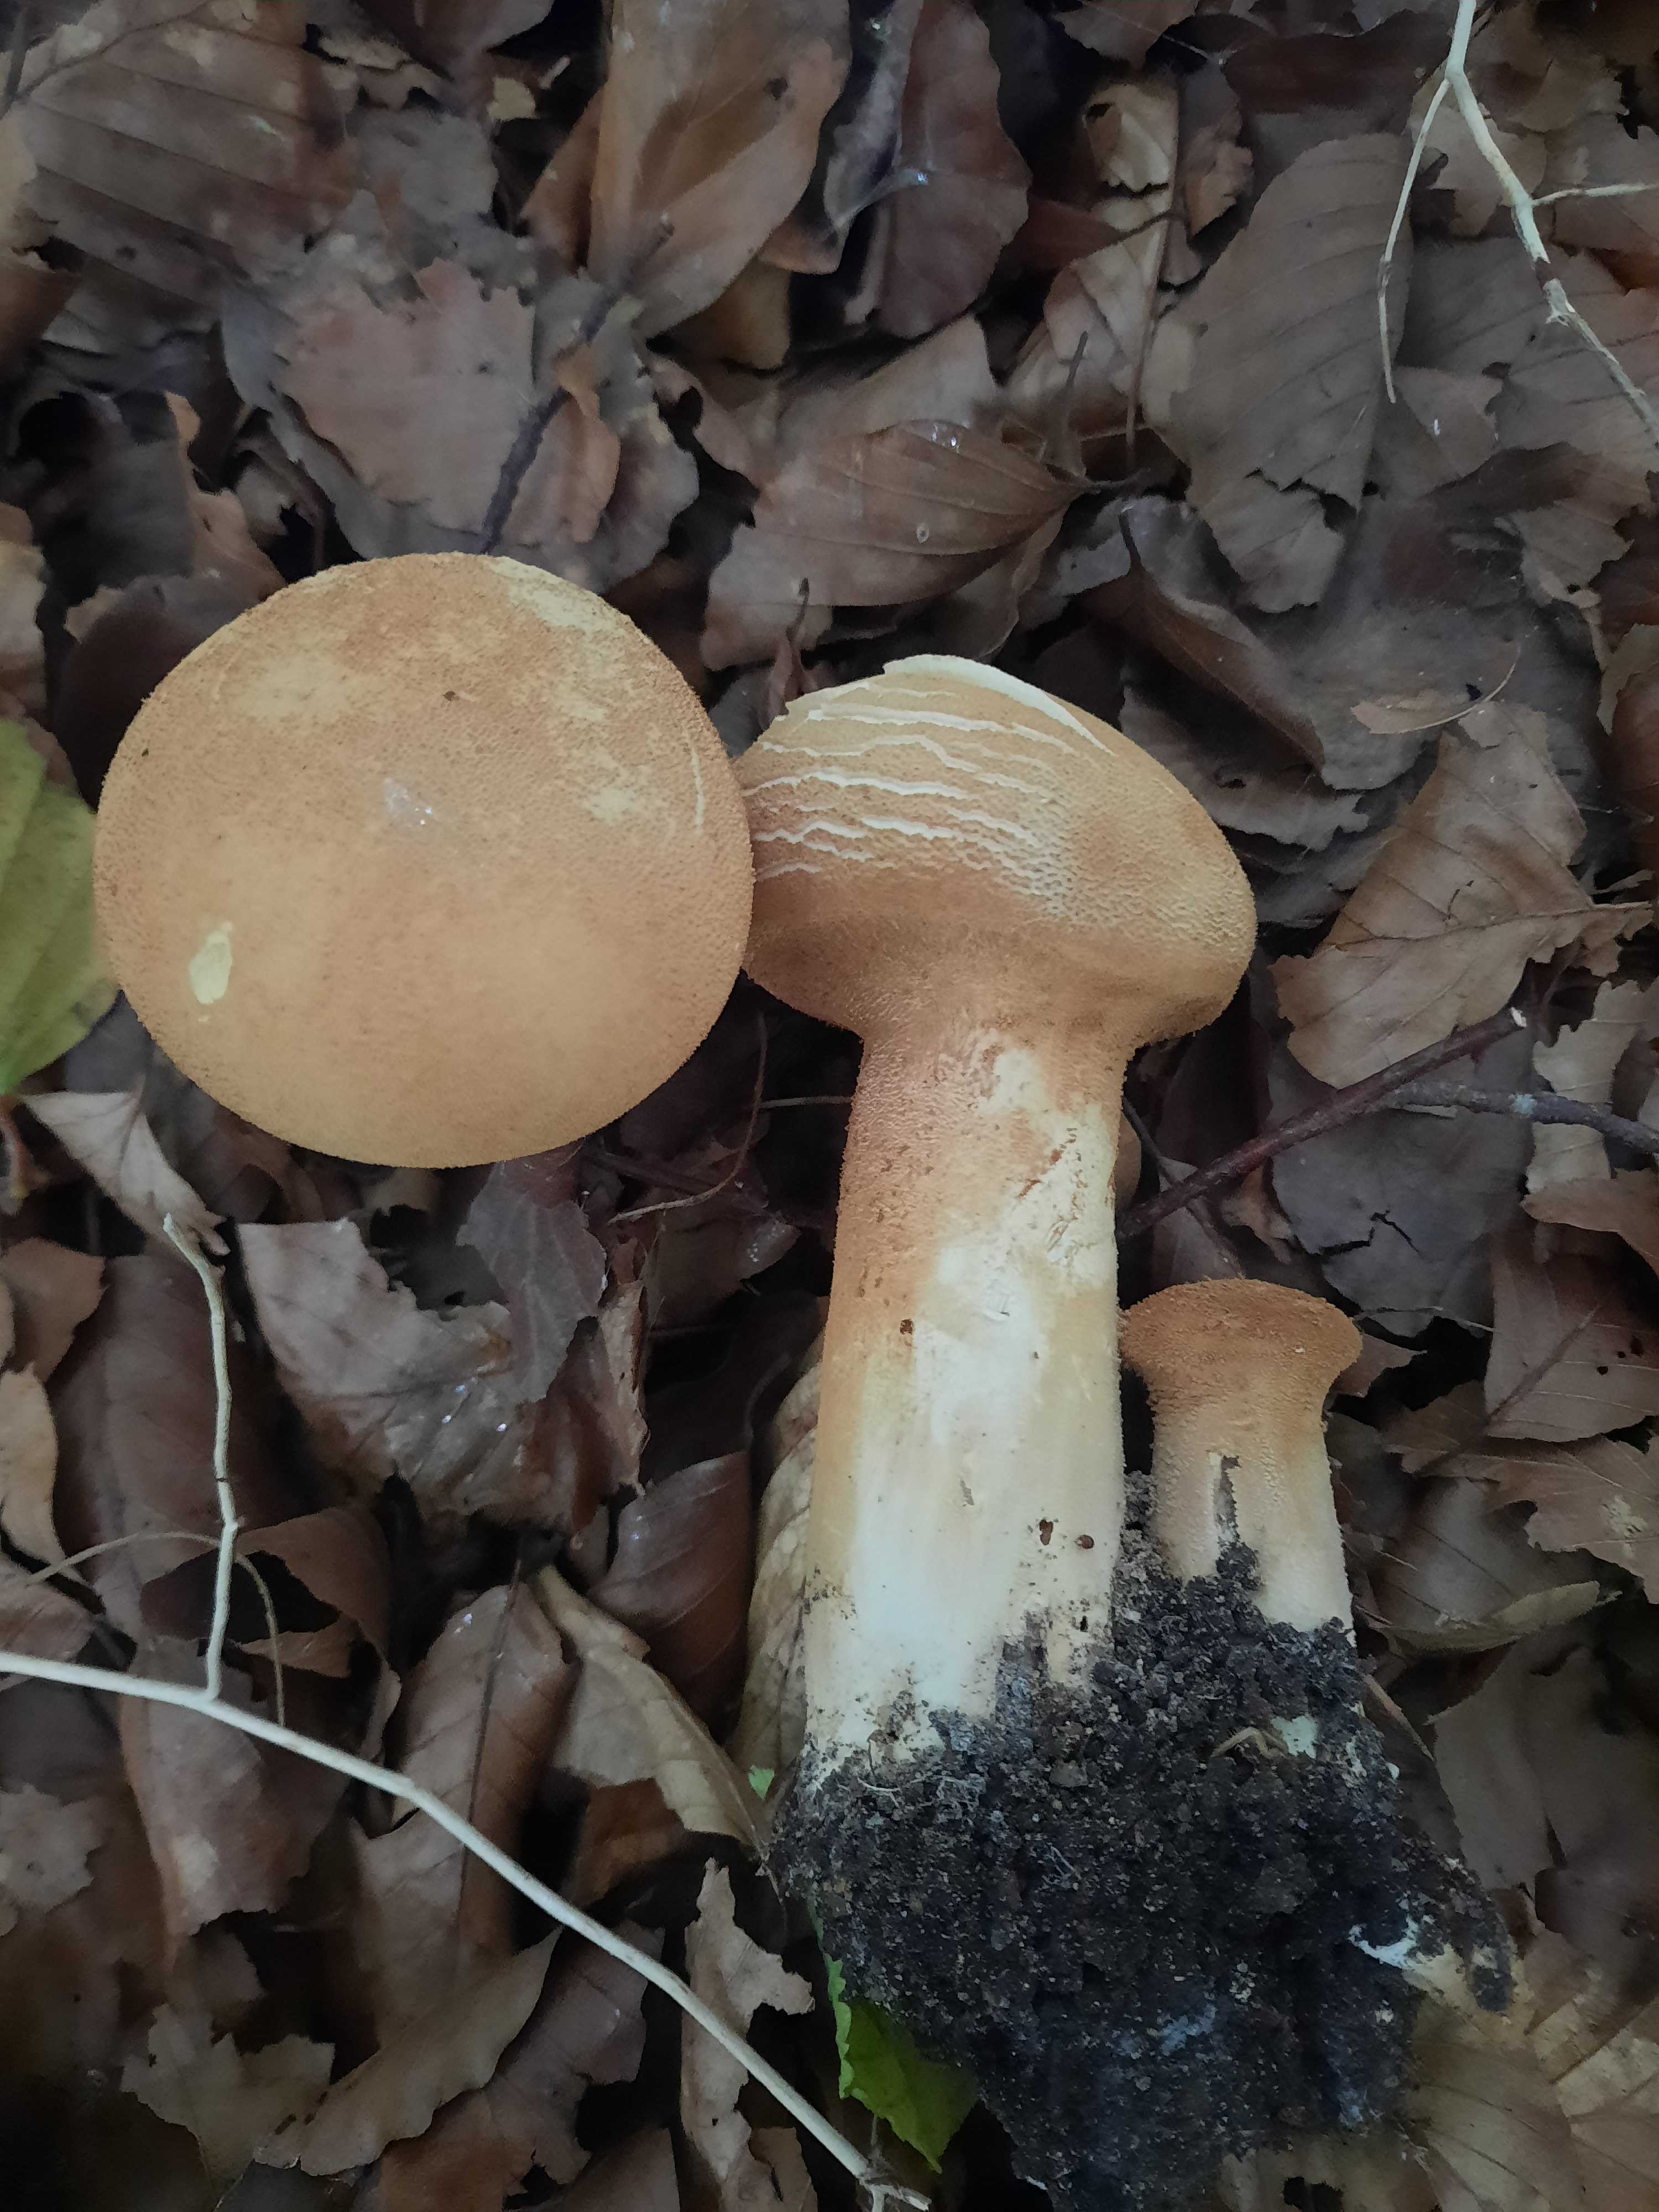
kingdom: Fungi
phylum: Basidiomycota
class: Agaricomycetes
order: Agaricales
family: Tricholomataceae
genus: Phaeolepiota
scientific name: Phaeolepiota aurea
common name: gyldenhat
